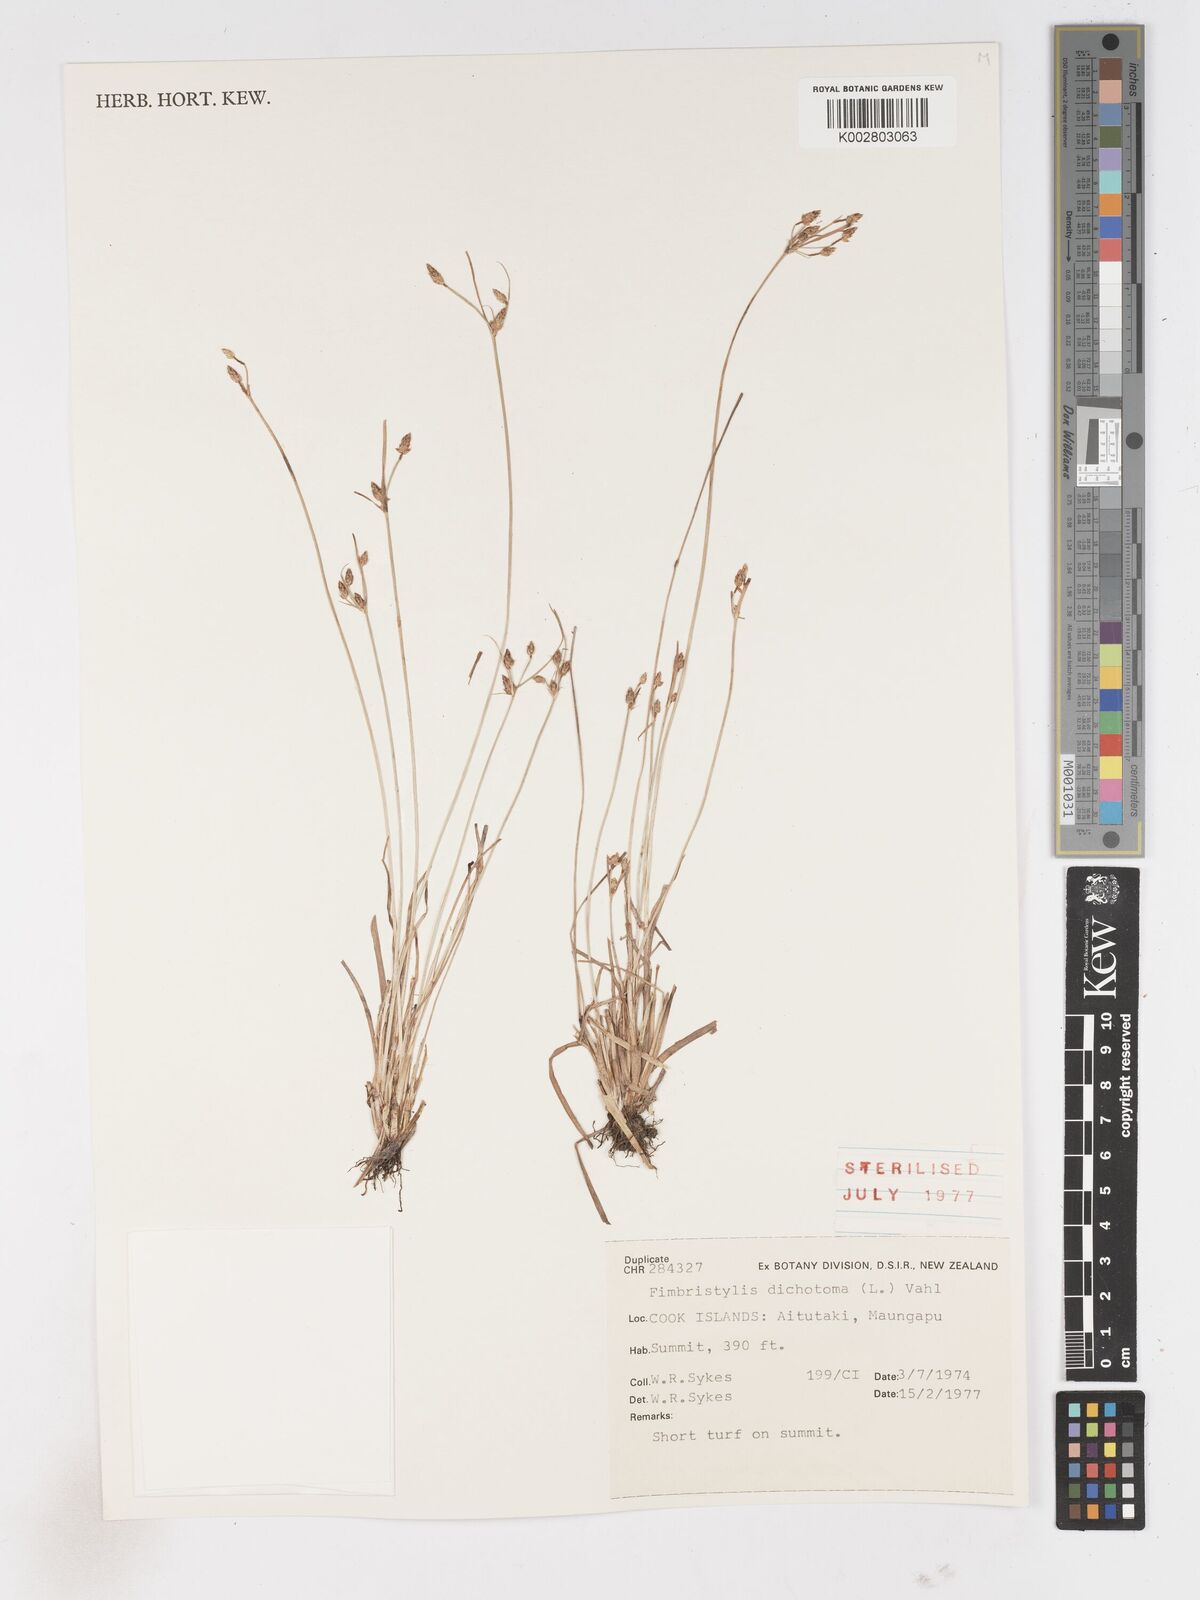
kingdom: Plantae
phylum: Tracheophyta
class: Liliopsida
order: Poales
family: Cyperaceae
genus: Fimbristylis
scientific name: Fimbristylis dichotoma
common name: Forked fimbry
